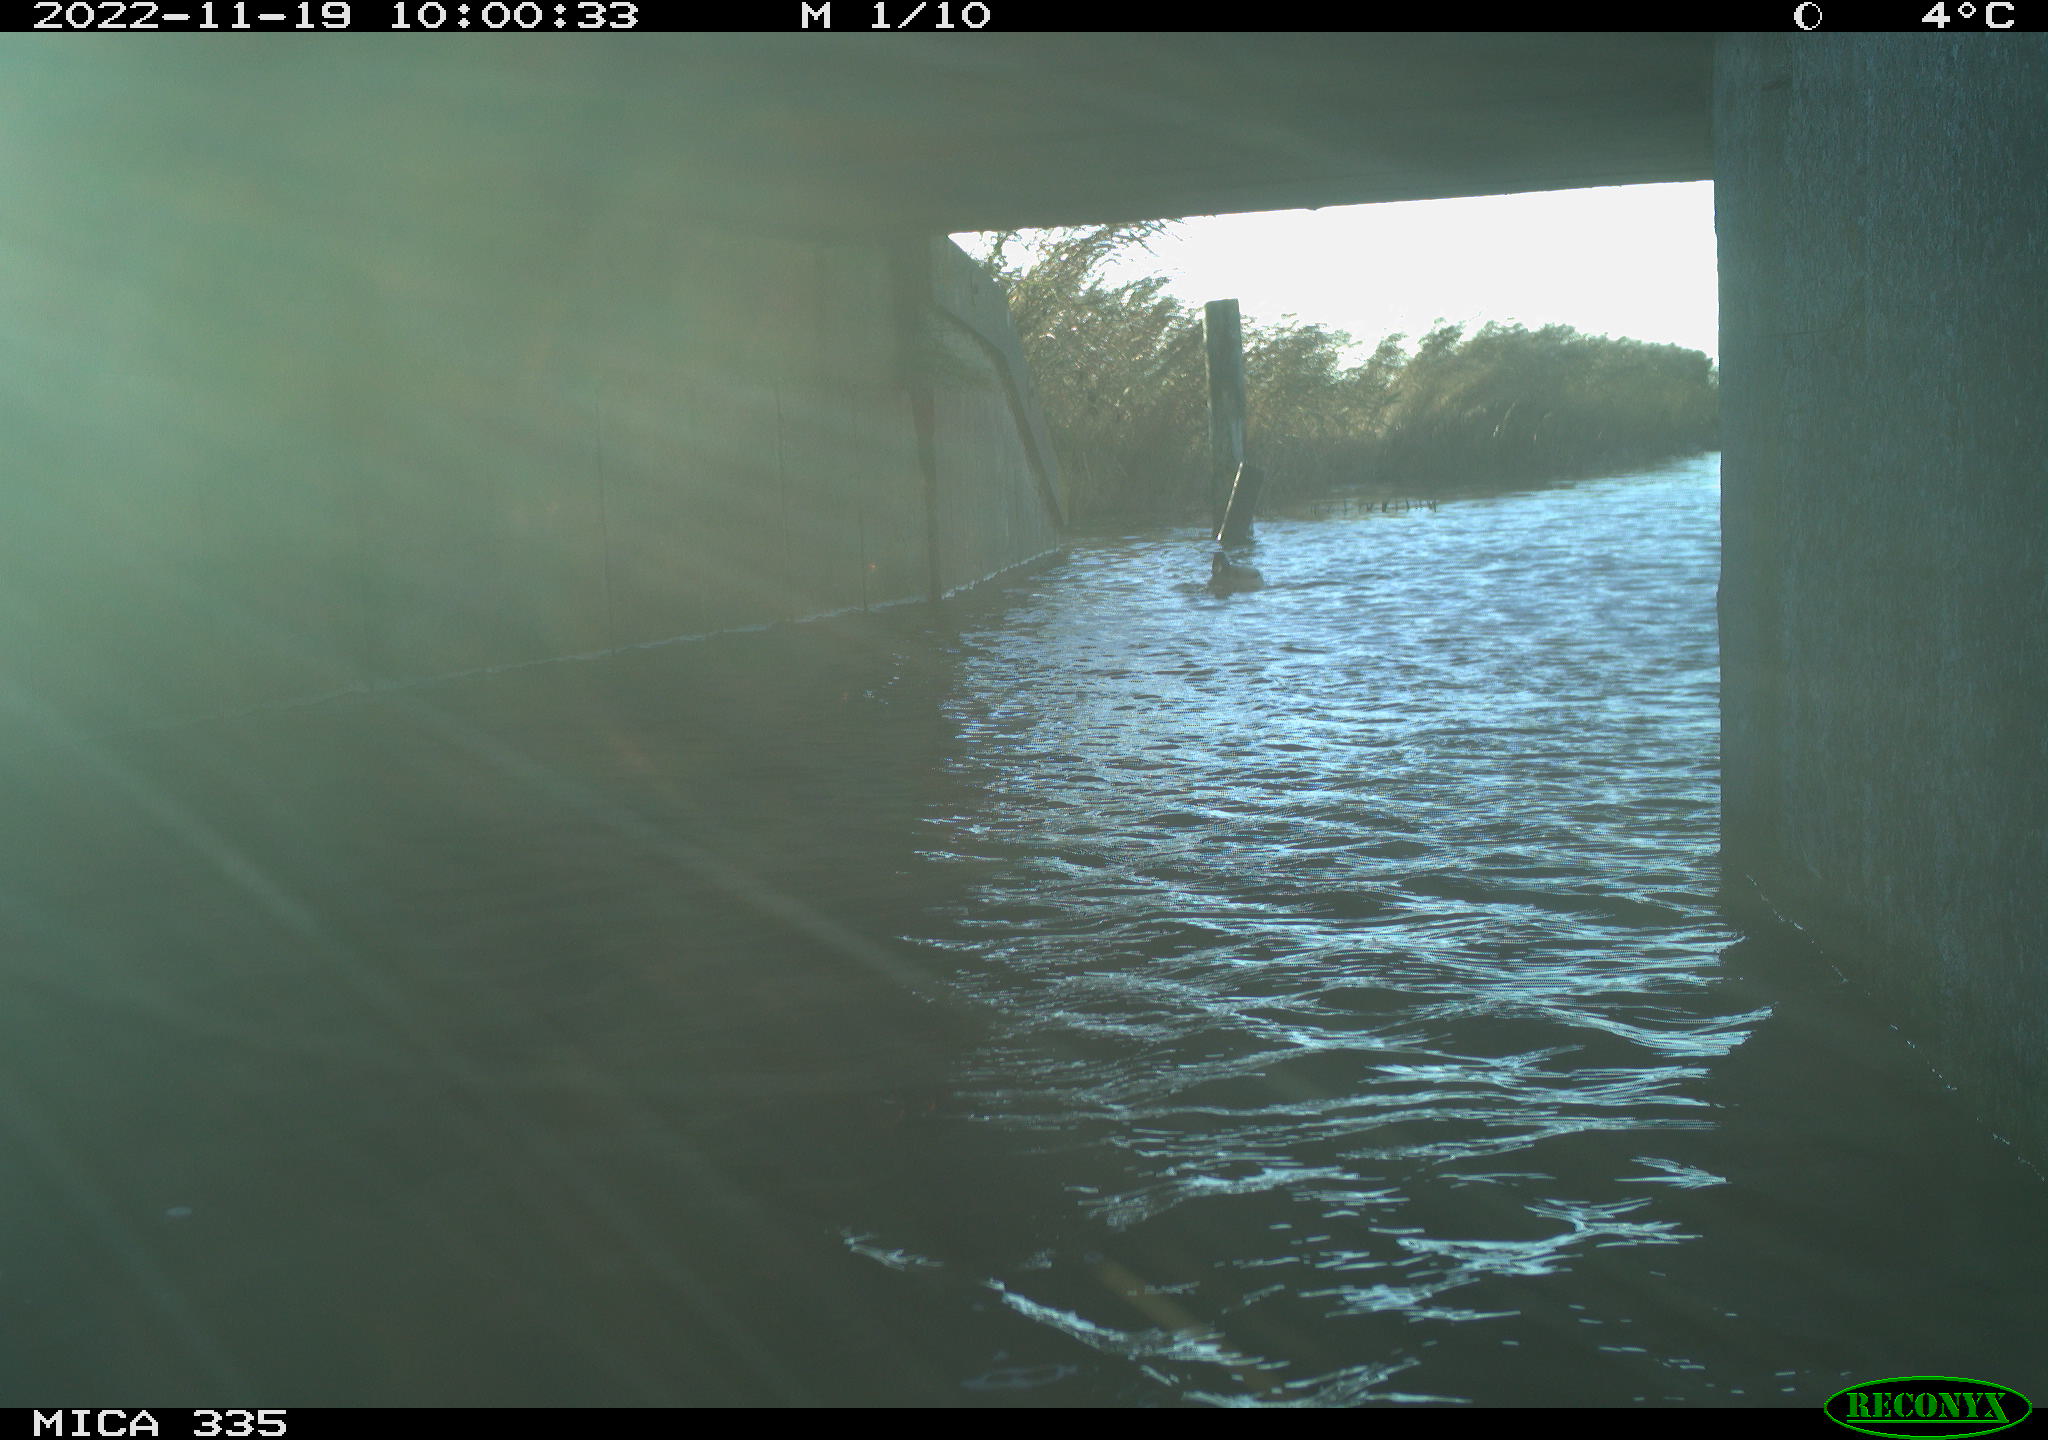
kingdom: Animalia
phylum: Chordata
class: Aves
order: Anseriformes
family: Anatidae
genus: Anas
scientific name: Anas platyrhynchos
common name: Mallard
